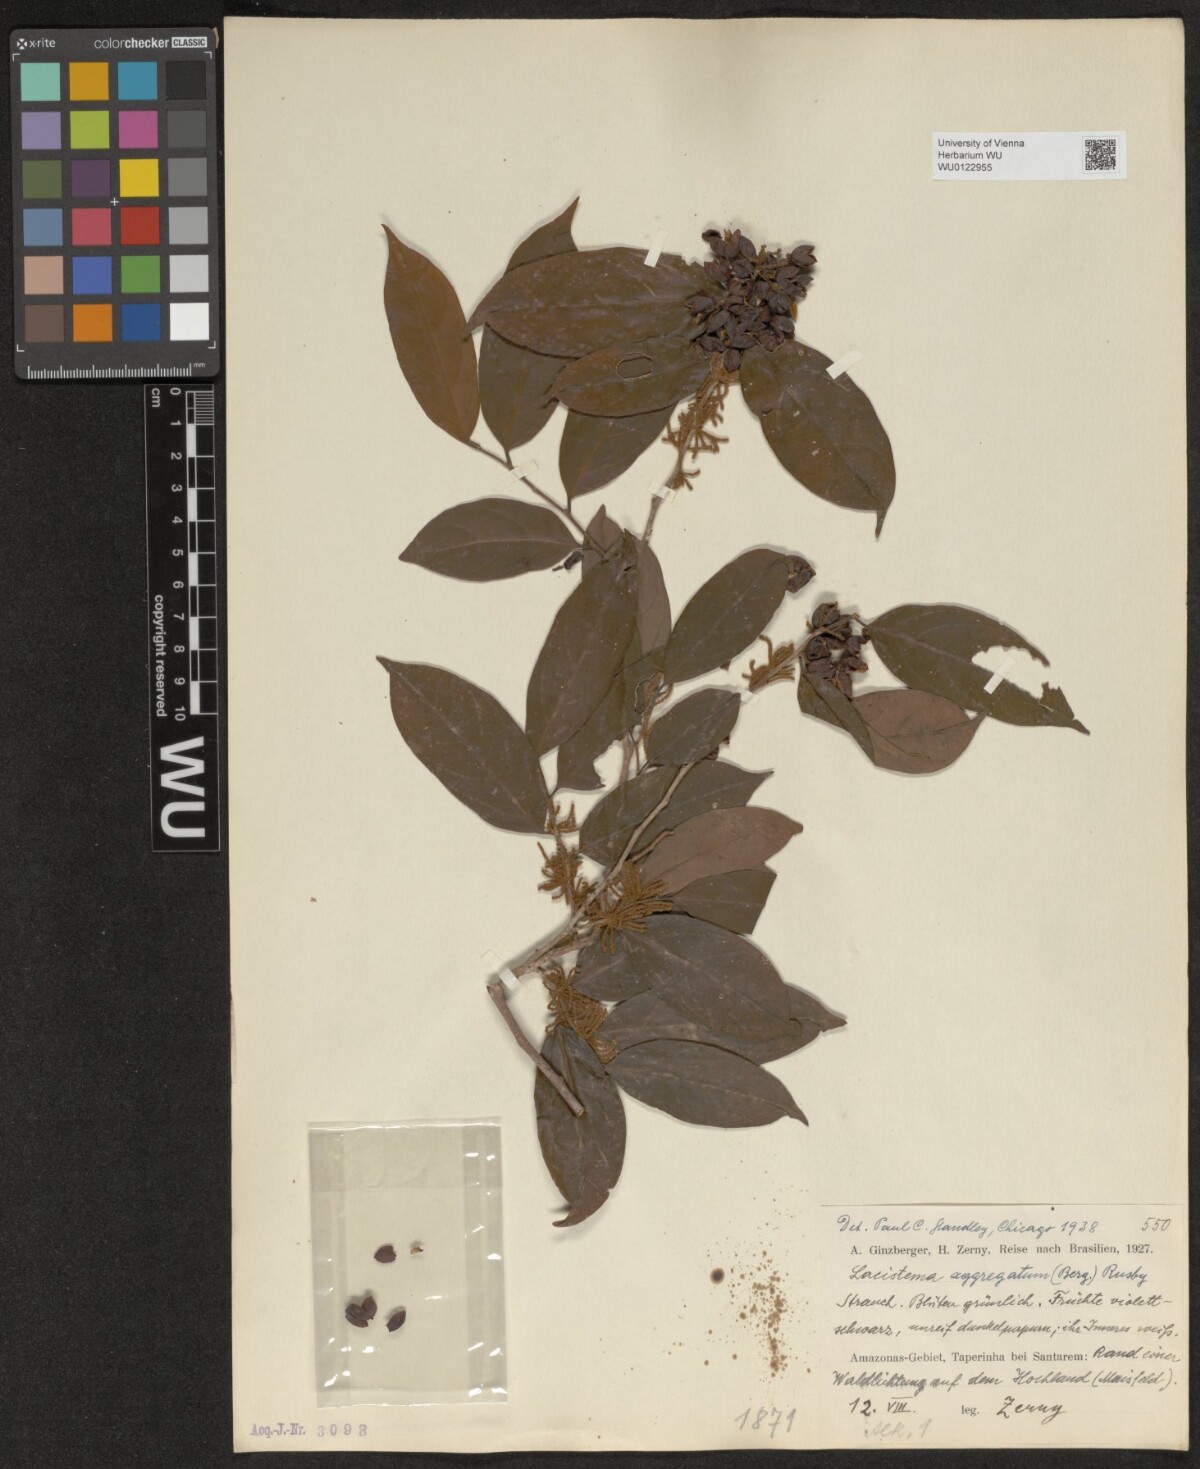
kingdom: Plantae
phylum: Tracheophyta
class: Magnoliopsida
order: Malpighiales
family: Lacistemataceae
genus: Lacistema
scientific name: Lacistema aggregatum
